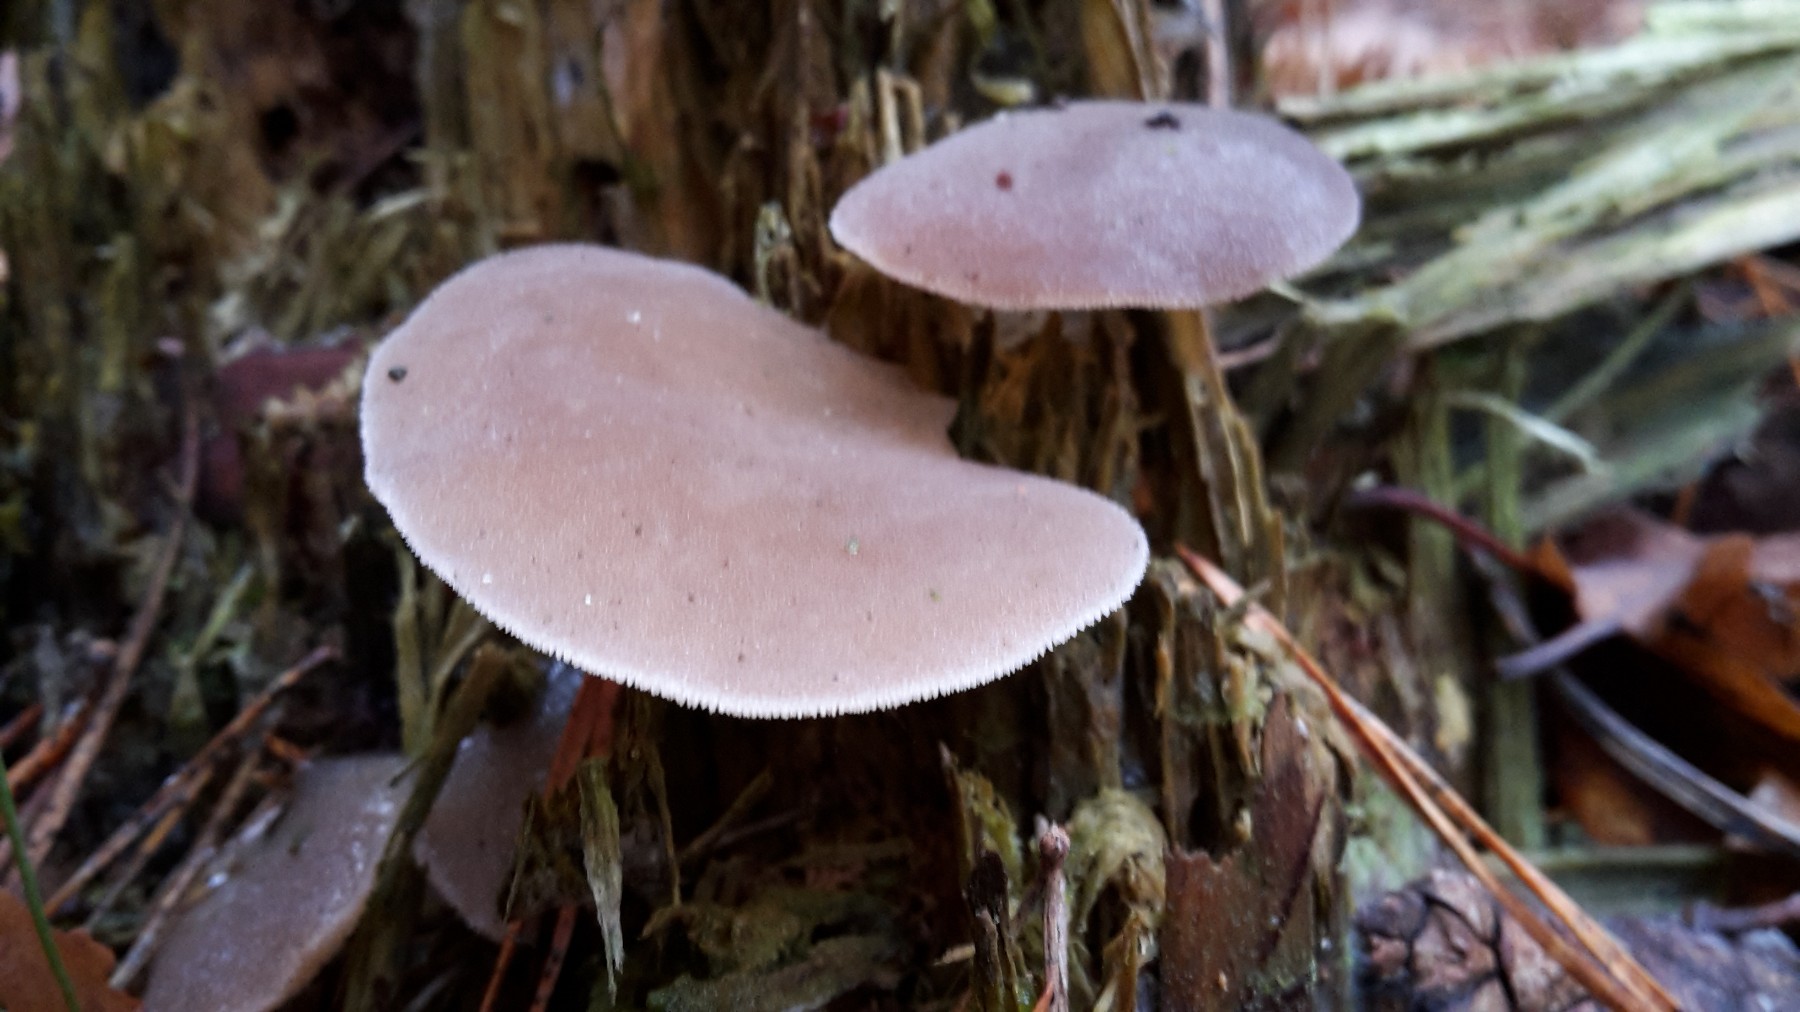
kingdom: Fungi
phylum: Basidiomycota
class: Agaricomycetes
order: Auriculariales
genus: Pseudohydnum
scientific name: Pseudohydnum gelatinosum
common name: bævretand
